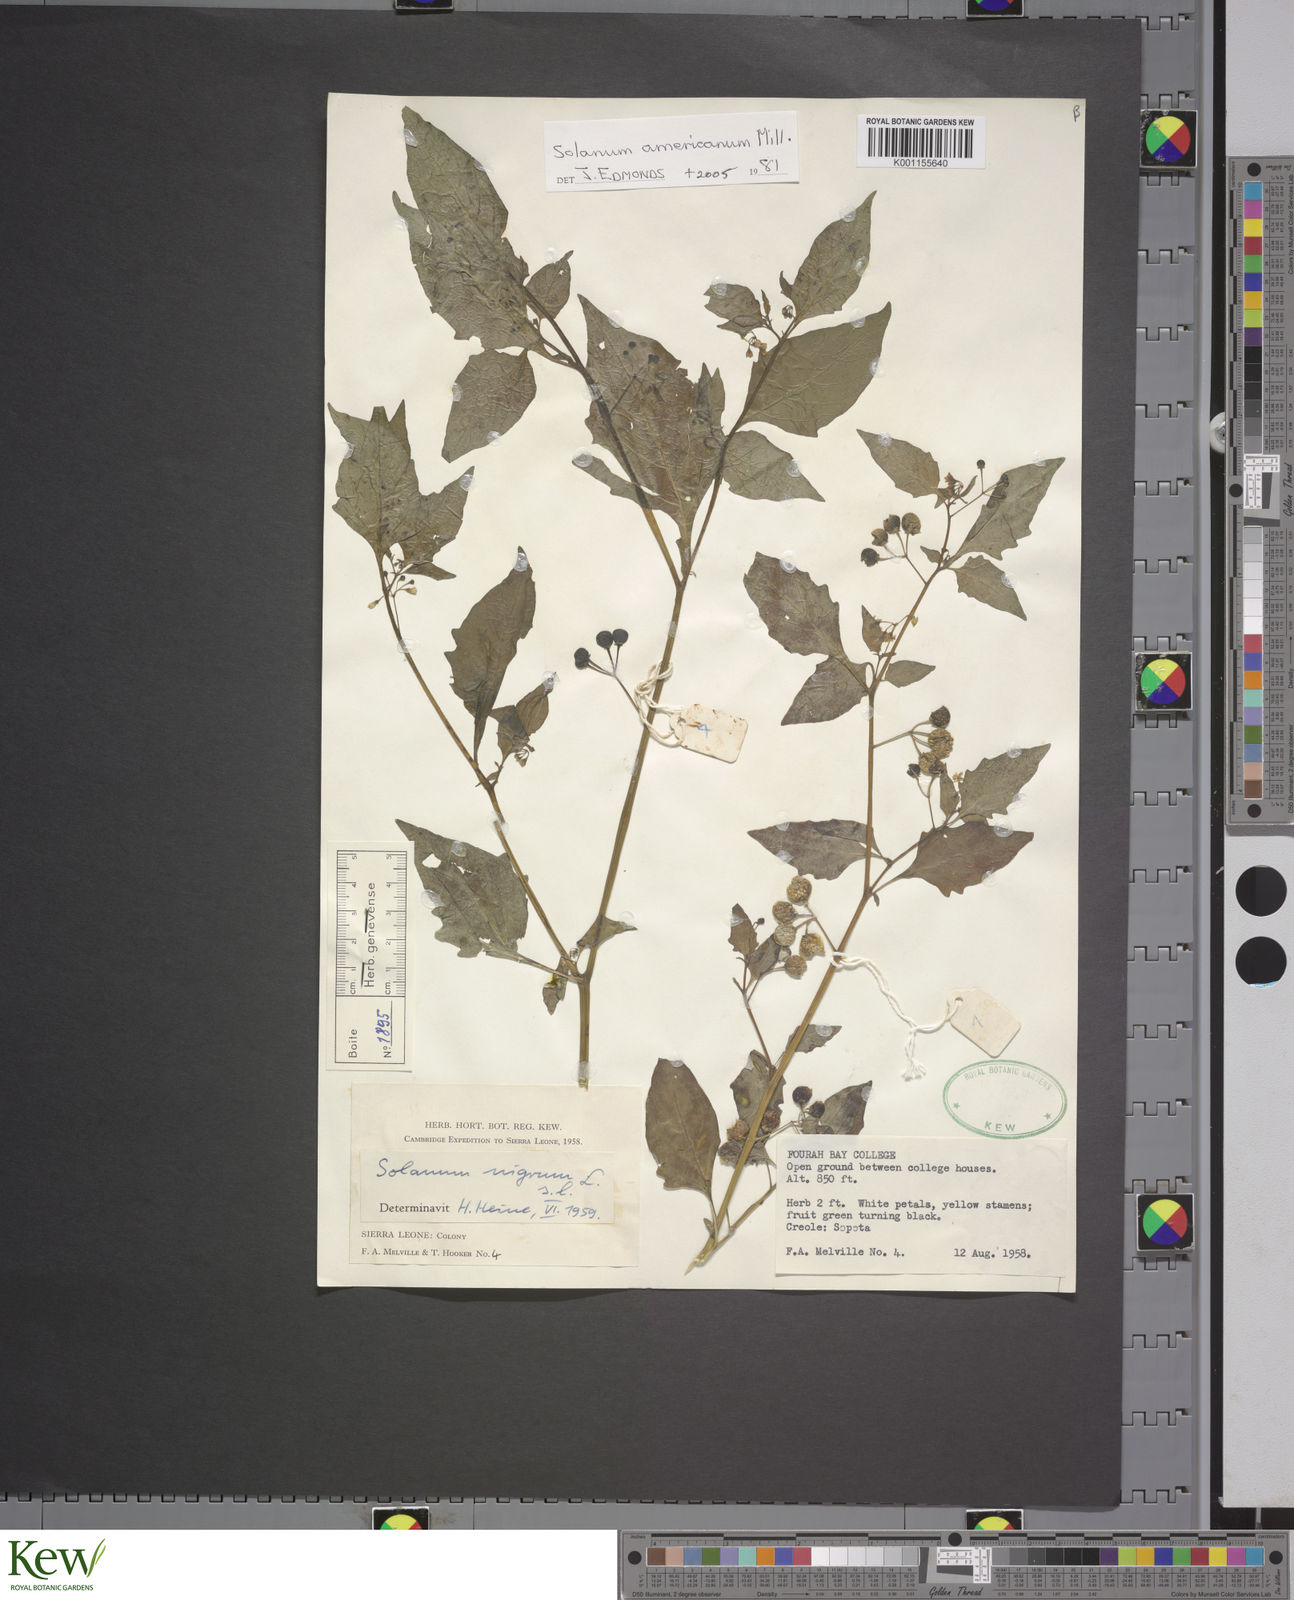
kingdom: Plantae
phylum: Tracheophyta
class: Magnoliopsida
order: Solanales
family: Solanaceae
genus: Solanum
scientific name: Solanum americanum
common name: American black nightshade
